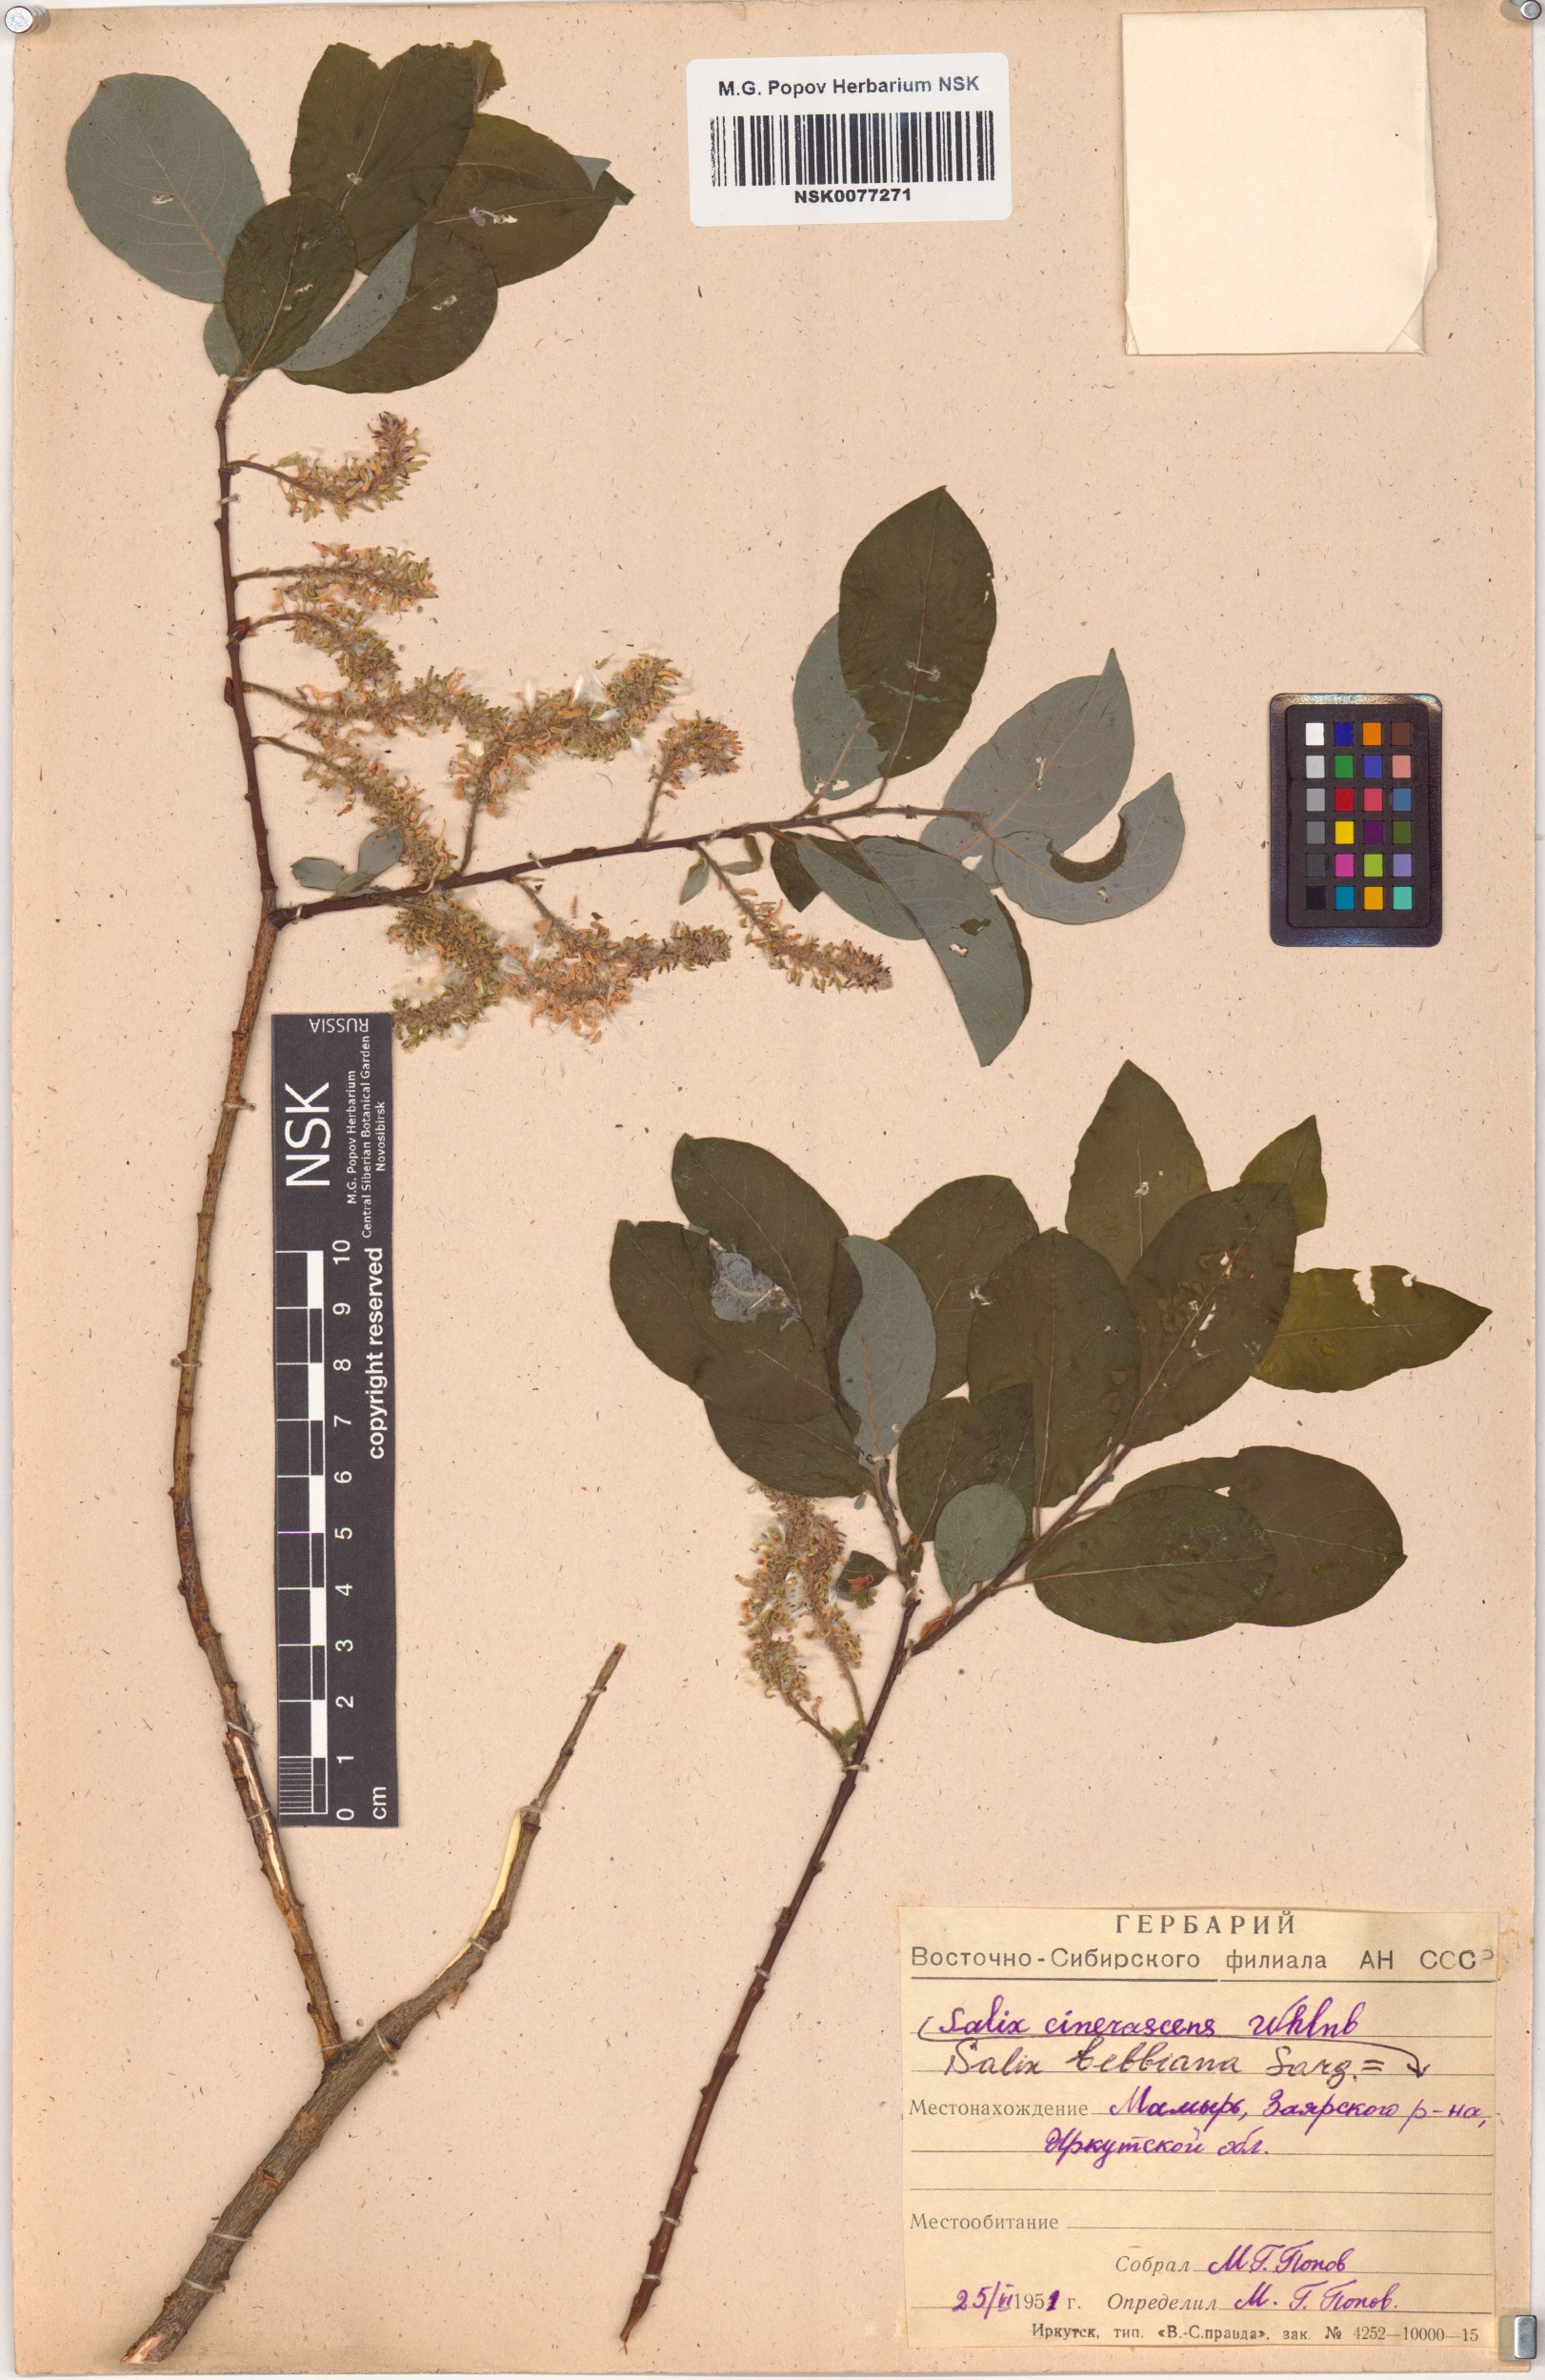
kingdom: Plantae
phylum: Tracheophyta
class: Magnoliopsida
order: Malpighiales
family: Salicaceae
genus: Salix
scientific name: Salix bebbiana
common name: Bebb's willow
